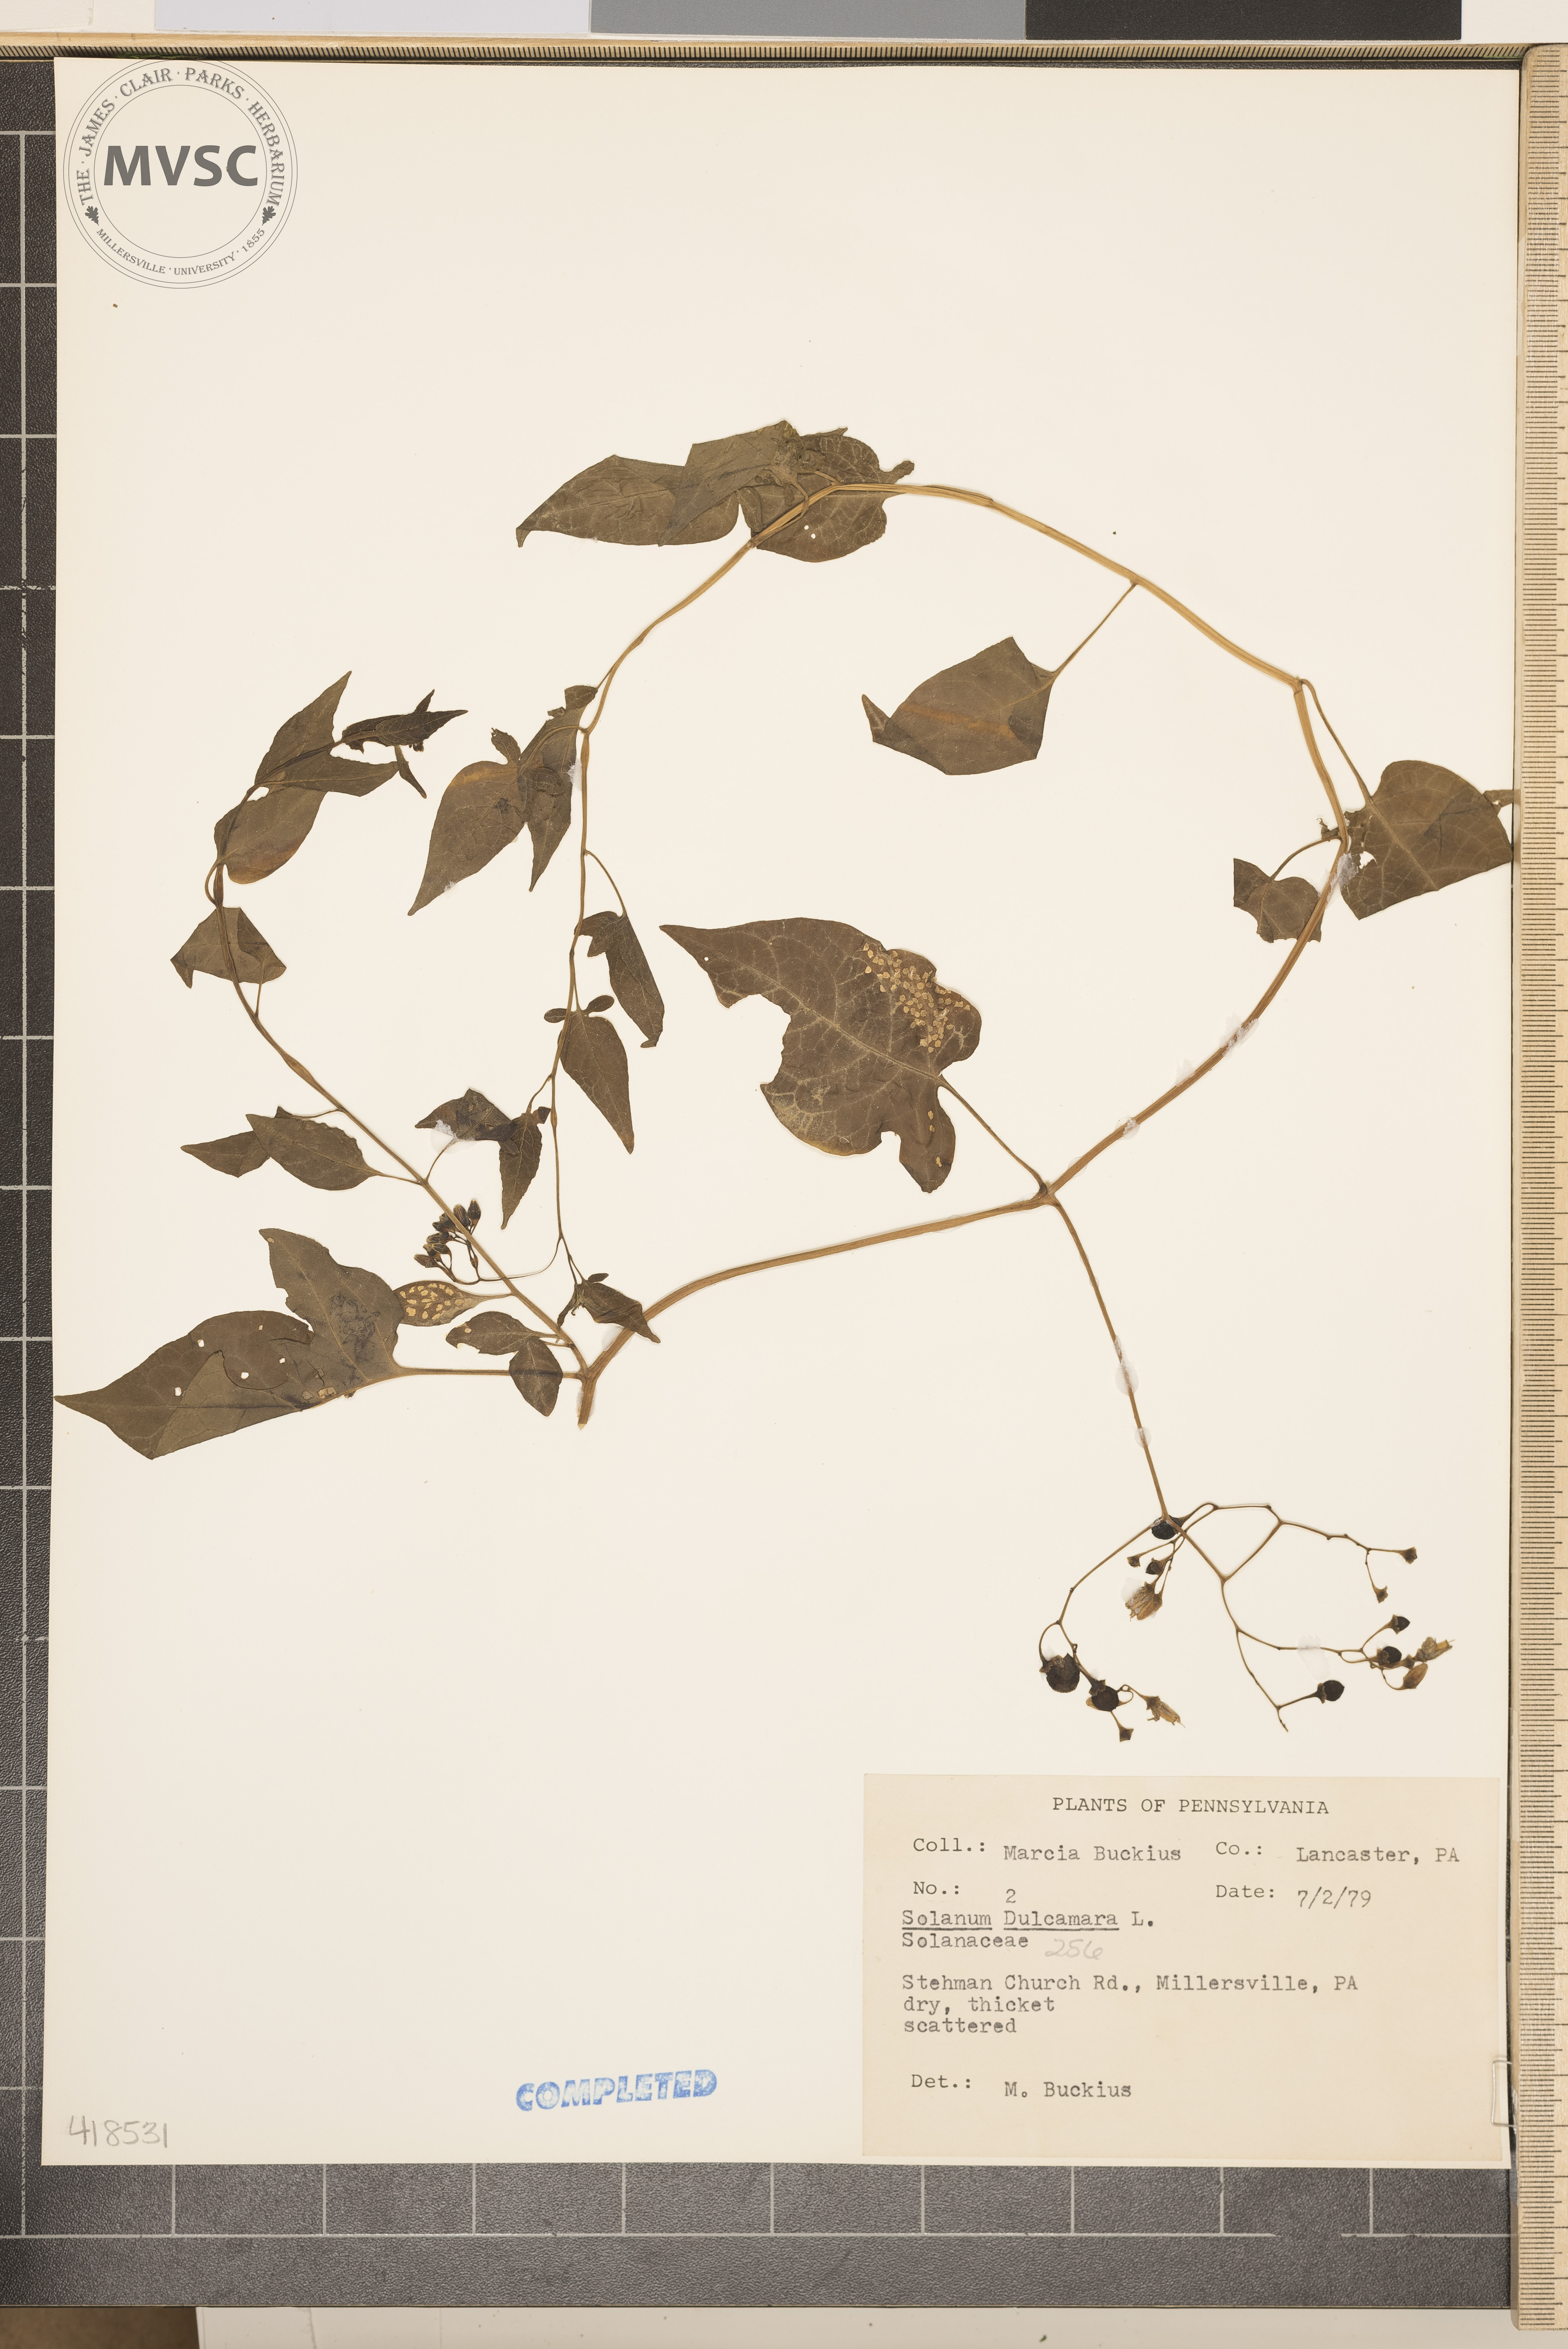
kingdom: Plantae
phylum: Tracheophyta
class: Magnoliopsida
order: Solanales
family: Solanaceae
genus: Solanum
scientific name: Solanum dulcamara
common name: Bittersweet Nightshade
